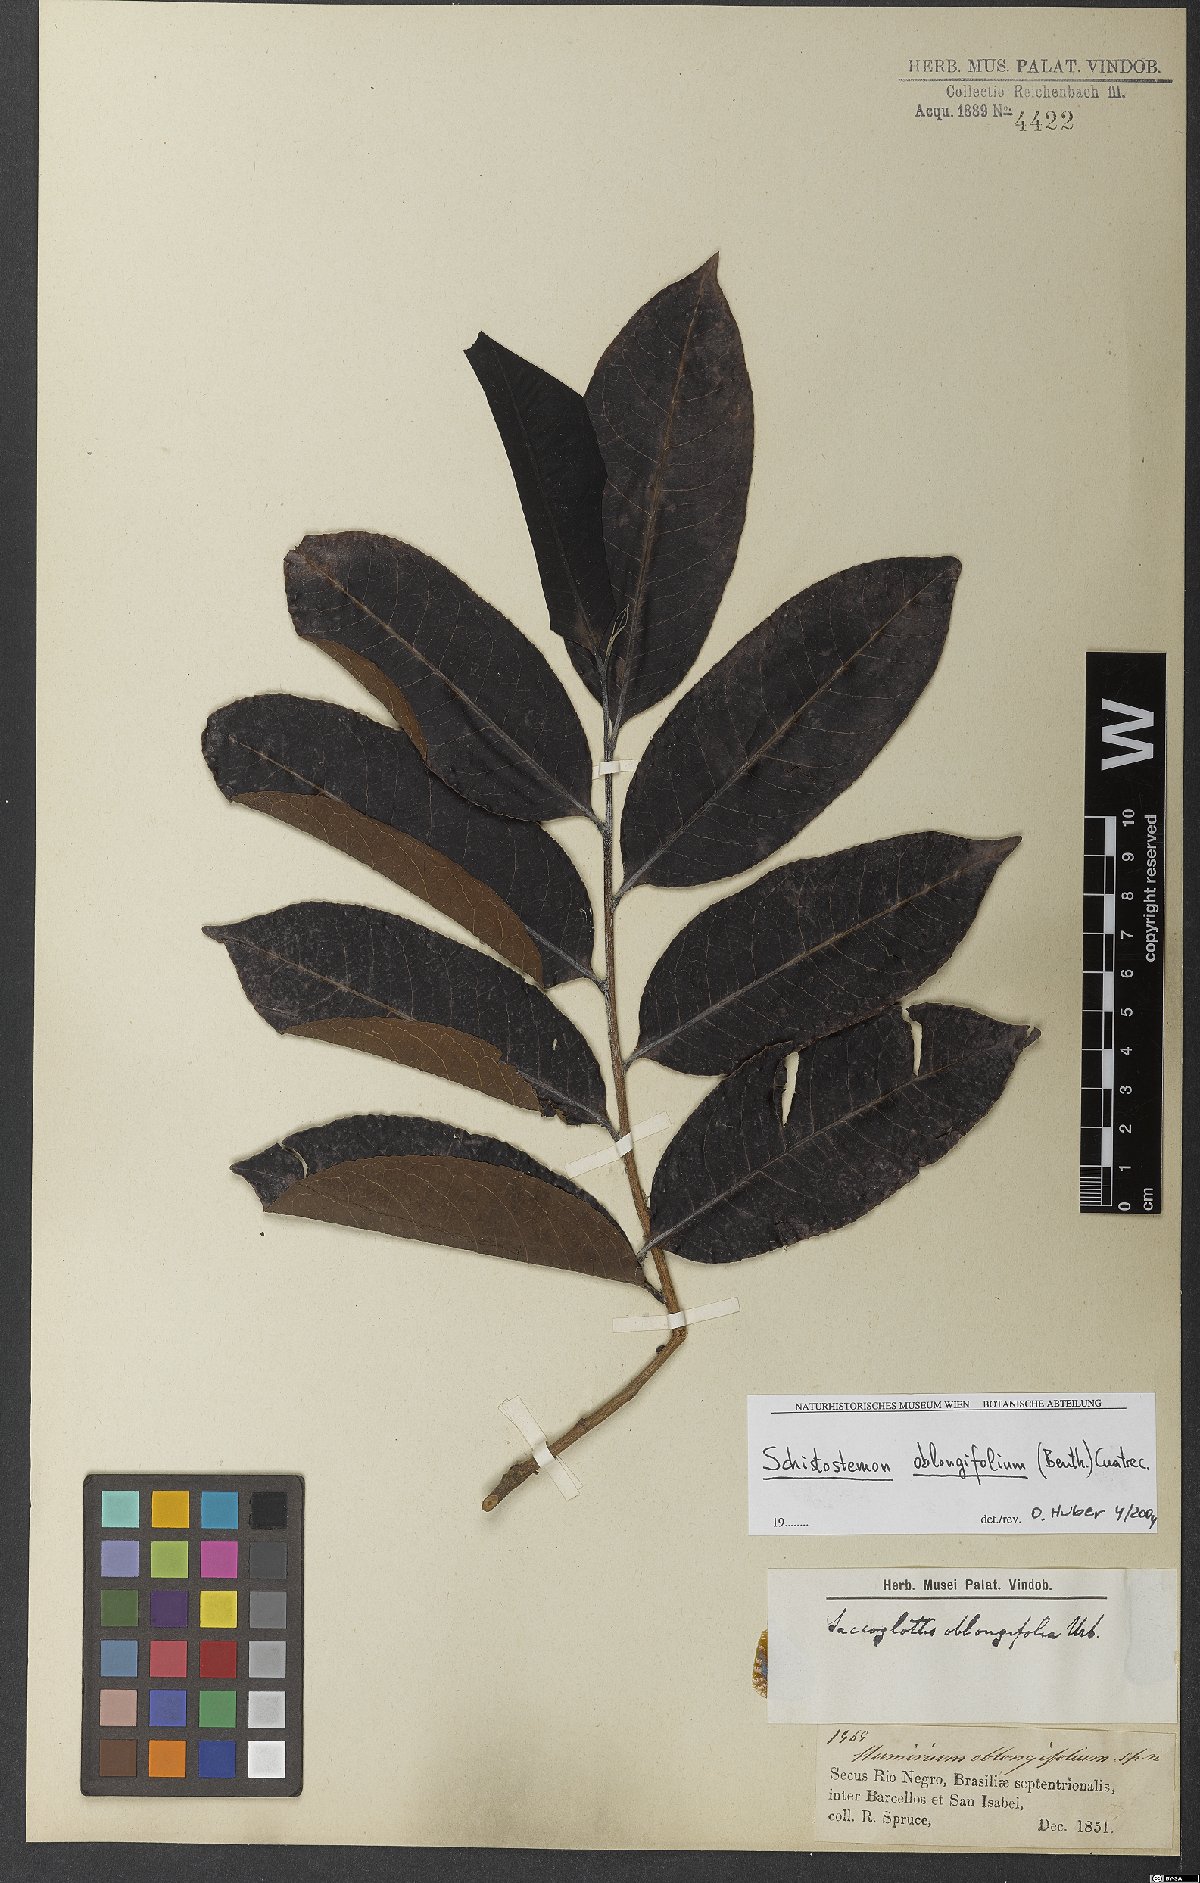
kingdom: Plantae
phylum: Tracheophyta
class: Magnoliopsida
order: Malpighiales
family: Humiriaceae
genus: Schistostemon
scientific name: Schistostemon oblongifolium
